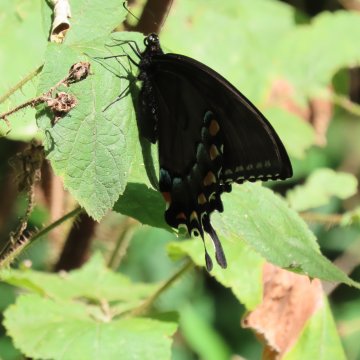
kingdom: Animalia
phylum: Arthropoda
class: Insecta
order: Lepidoptera
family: Papilionidae
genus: Pterourus
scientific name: Pterourus glaucus
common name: Eastern Tiger Swallowtail
